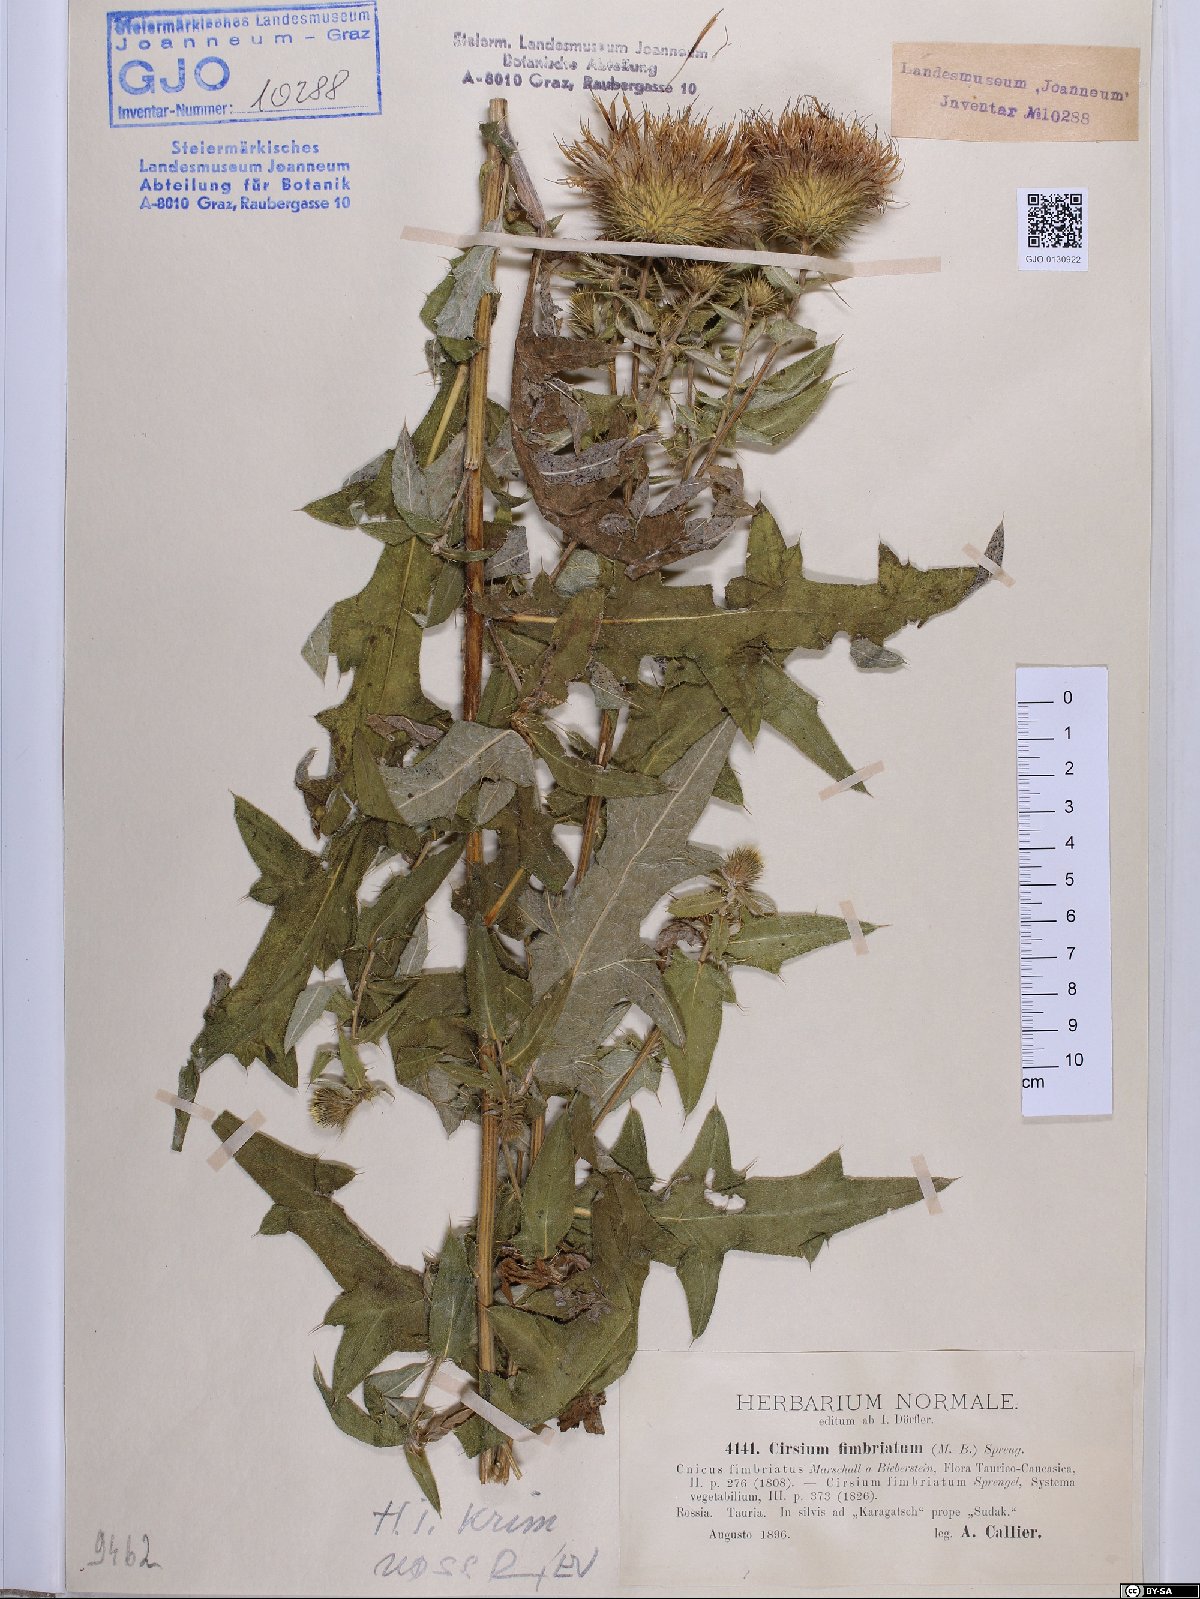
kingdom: Plantae
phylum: Tracheophyta
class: Magnoliopsida
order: Asterales
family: Asteraceae
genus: Lophiolepis
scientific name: Lophiolepis ossetica
